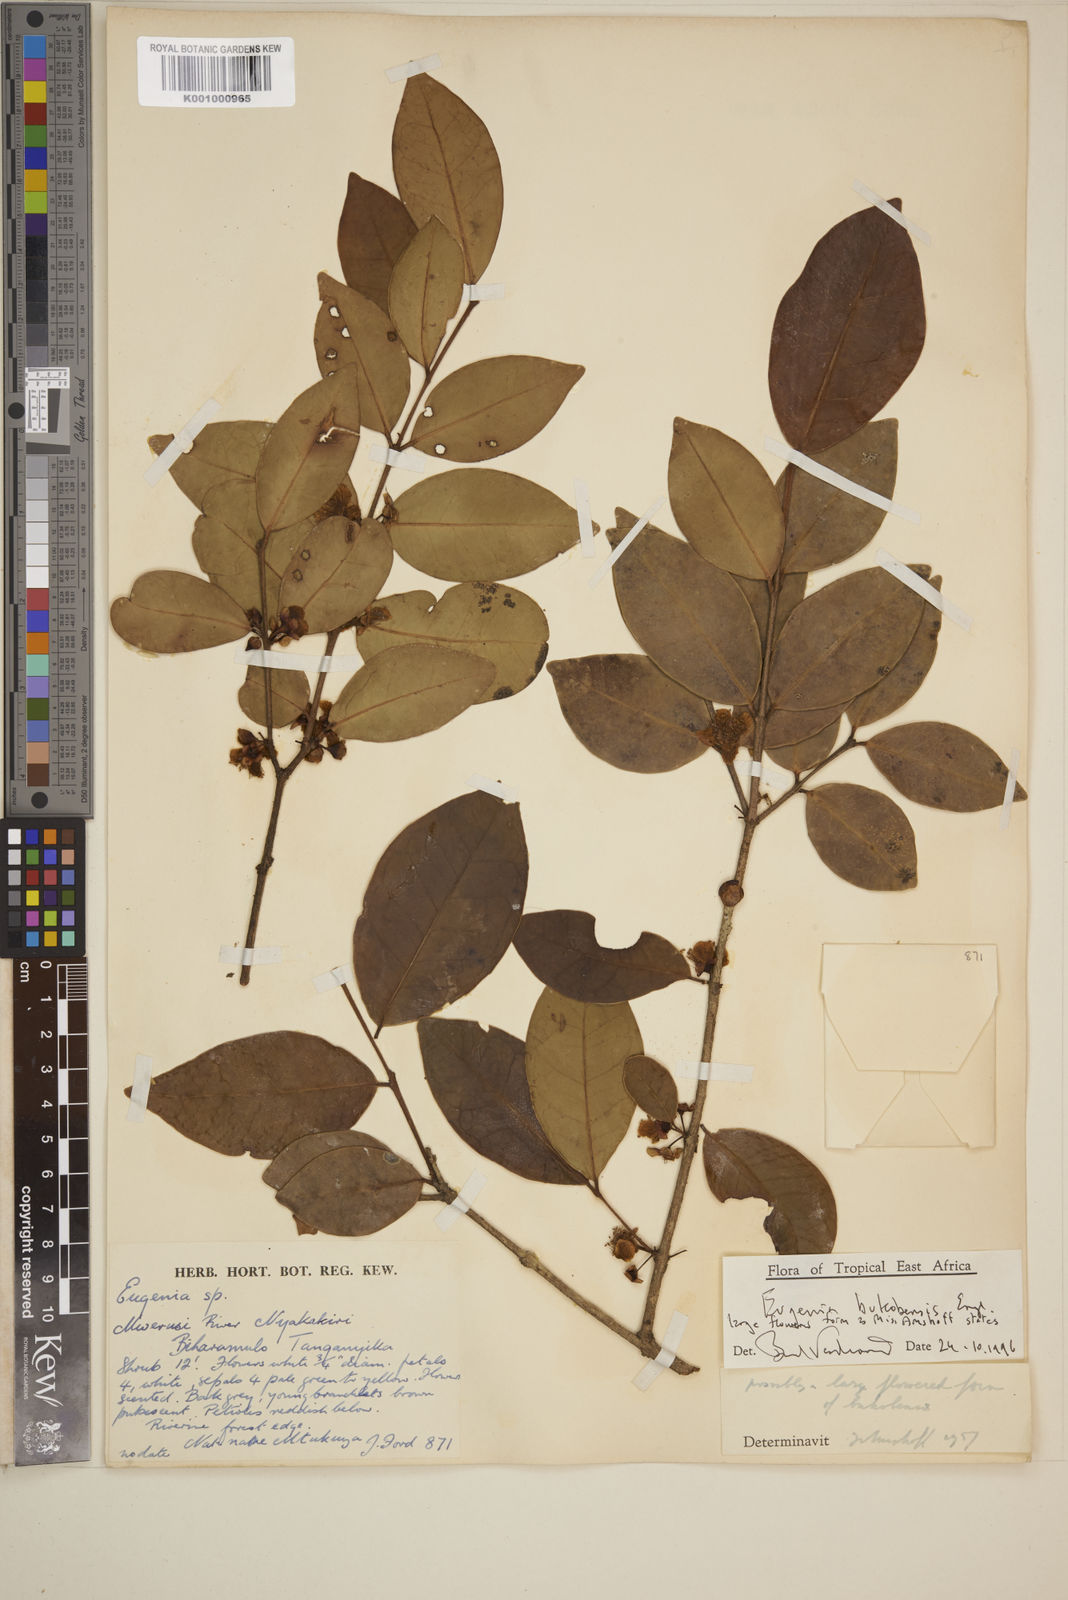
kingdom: Plantae
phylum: Tracheophyta
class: Magnoliopsida
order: Myrtales
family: Myrtaceae
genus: Eugenia
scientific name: Eugenia bukobensis
